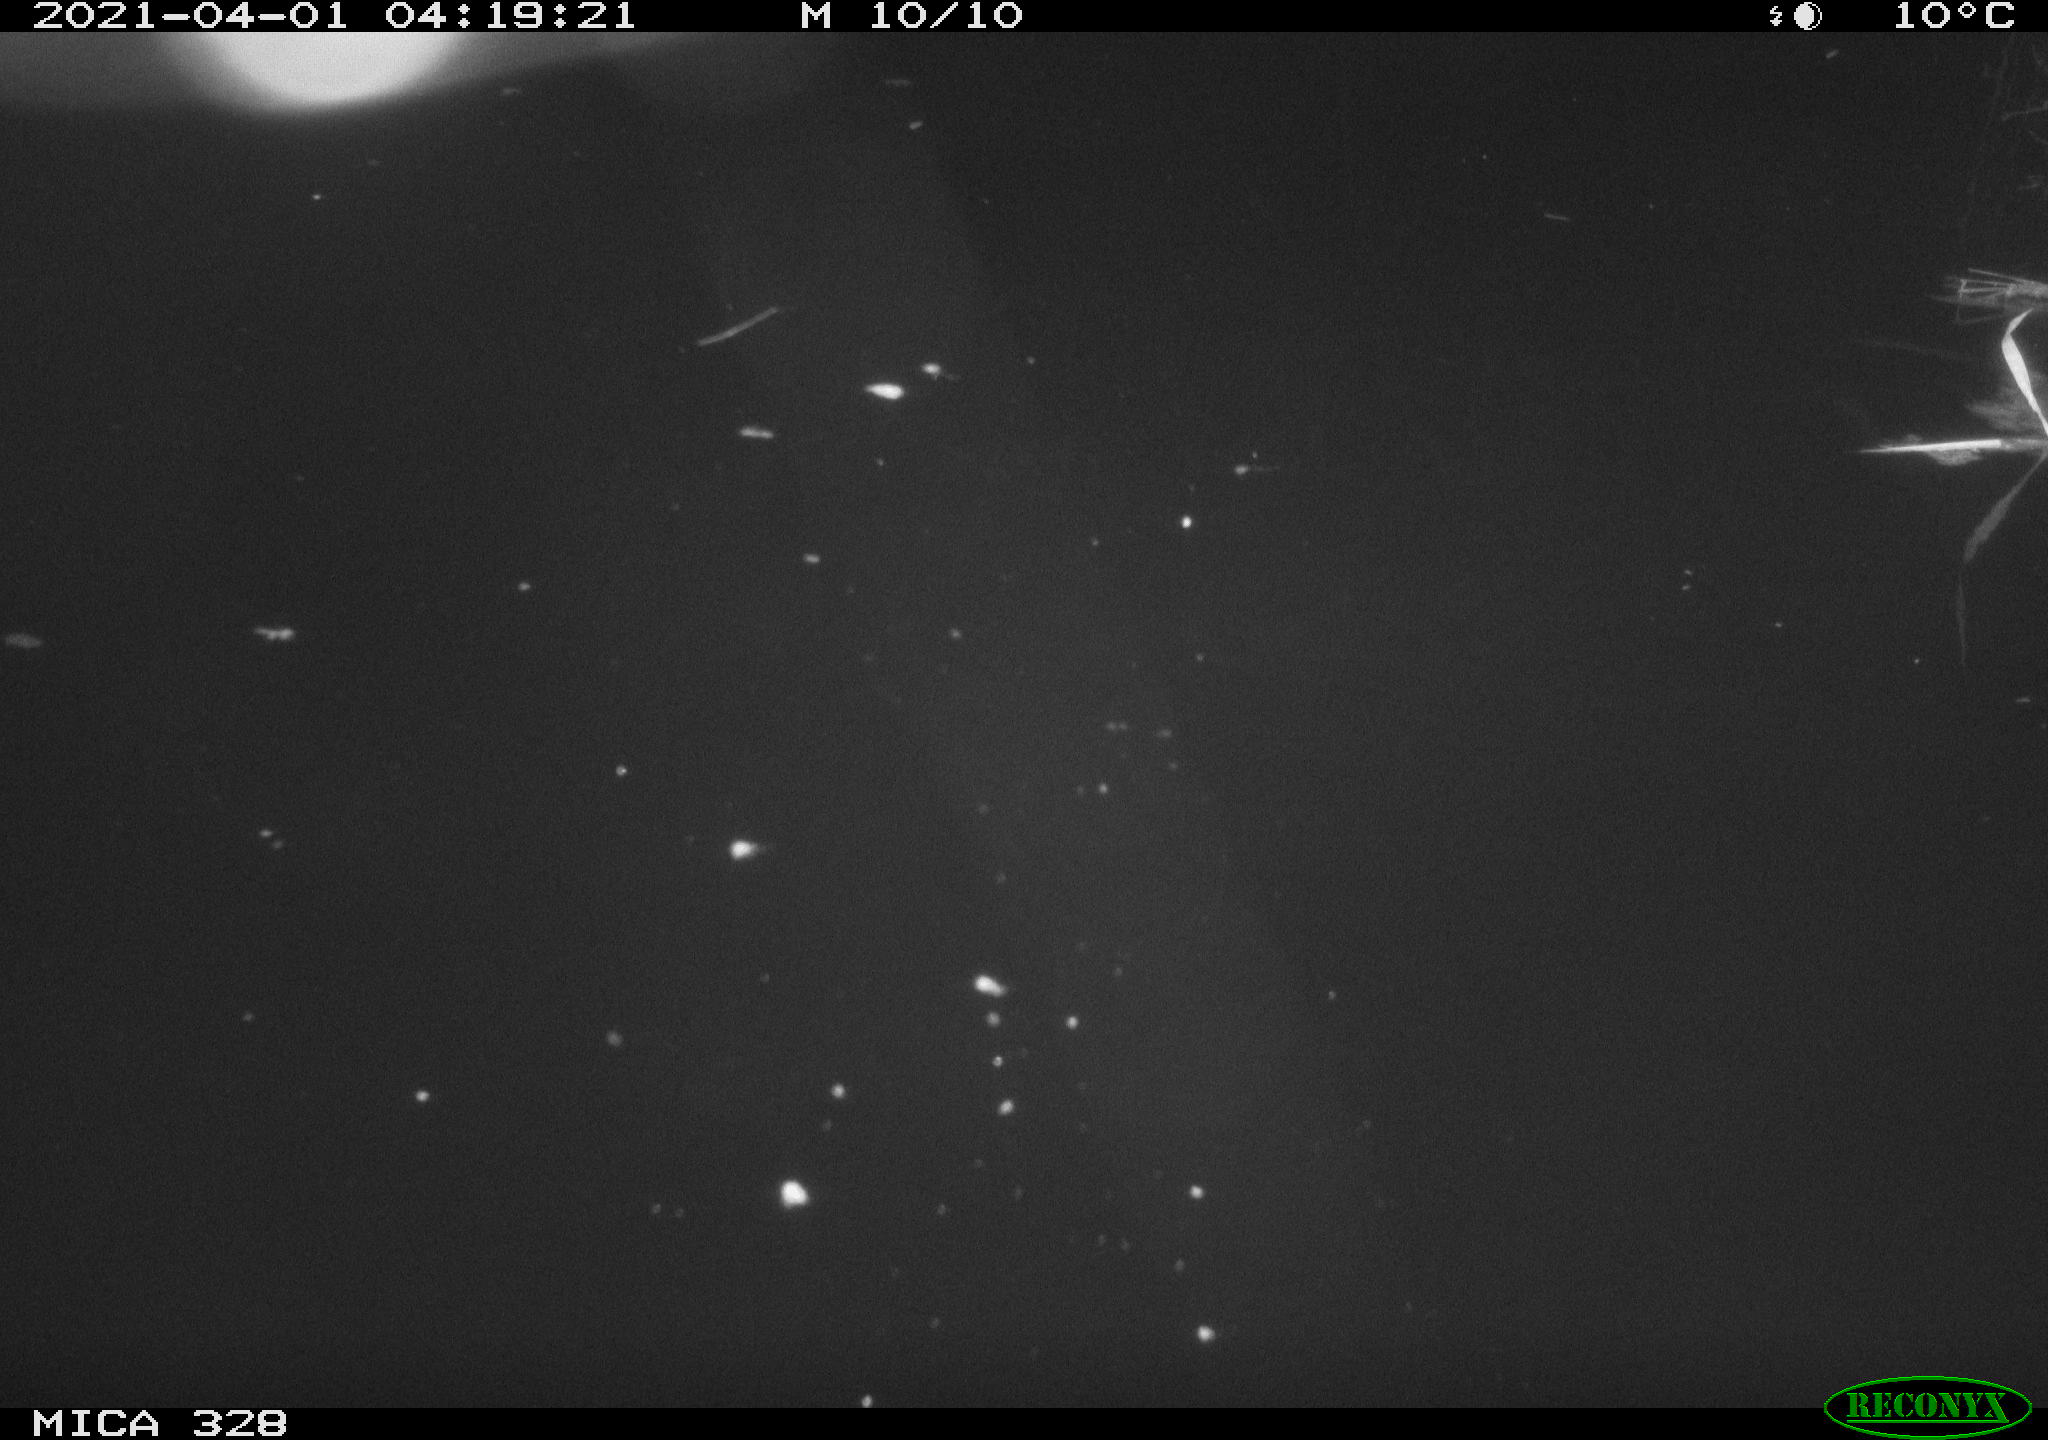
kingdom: Animalia
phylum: Chordata
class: Aves
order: Anseriformes
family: Anatidae
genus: Anas
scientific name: Anas platyrhynchos
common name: Mallard
